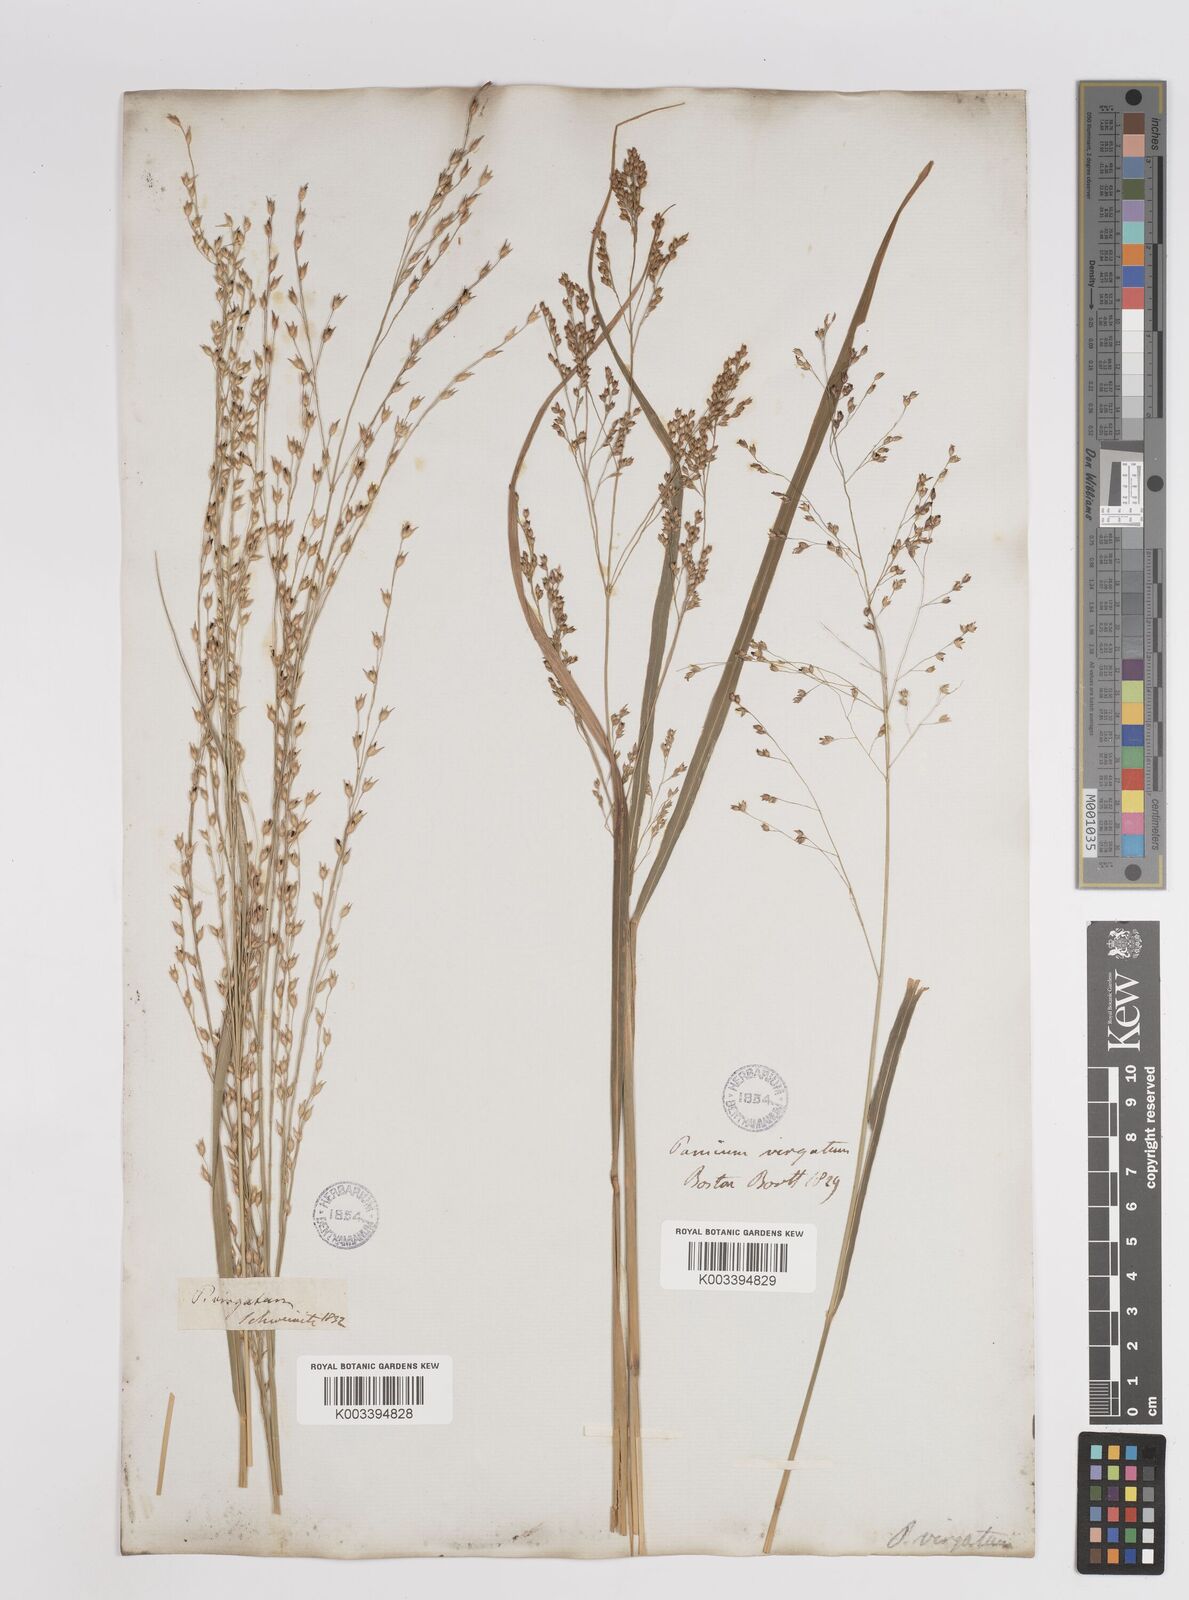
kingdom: Plantae
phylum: Tracheophyta
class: Liliopsida
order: Poales
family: Poaceae
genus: Panicum
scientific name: Panicum virgatum
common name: Switchgrass
